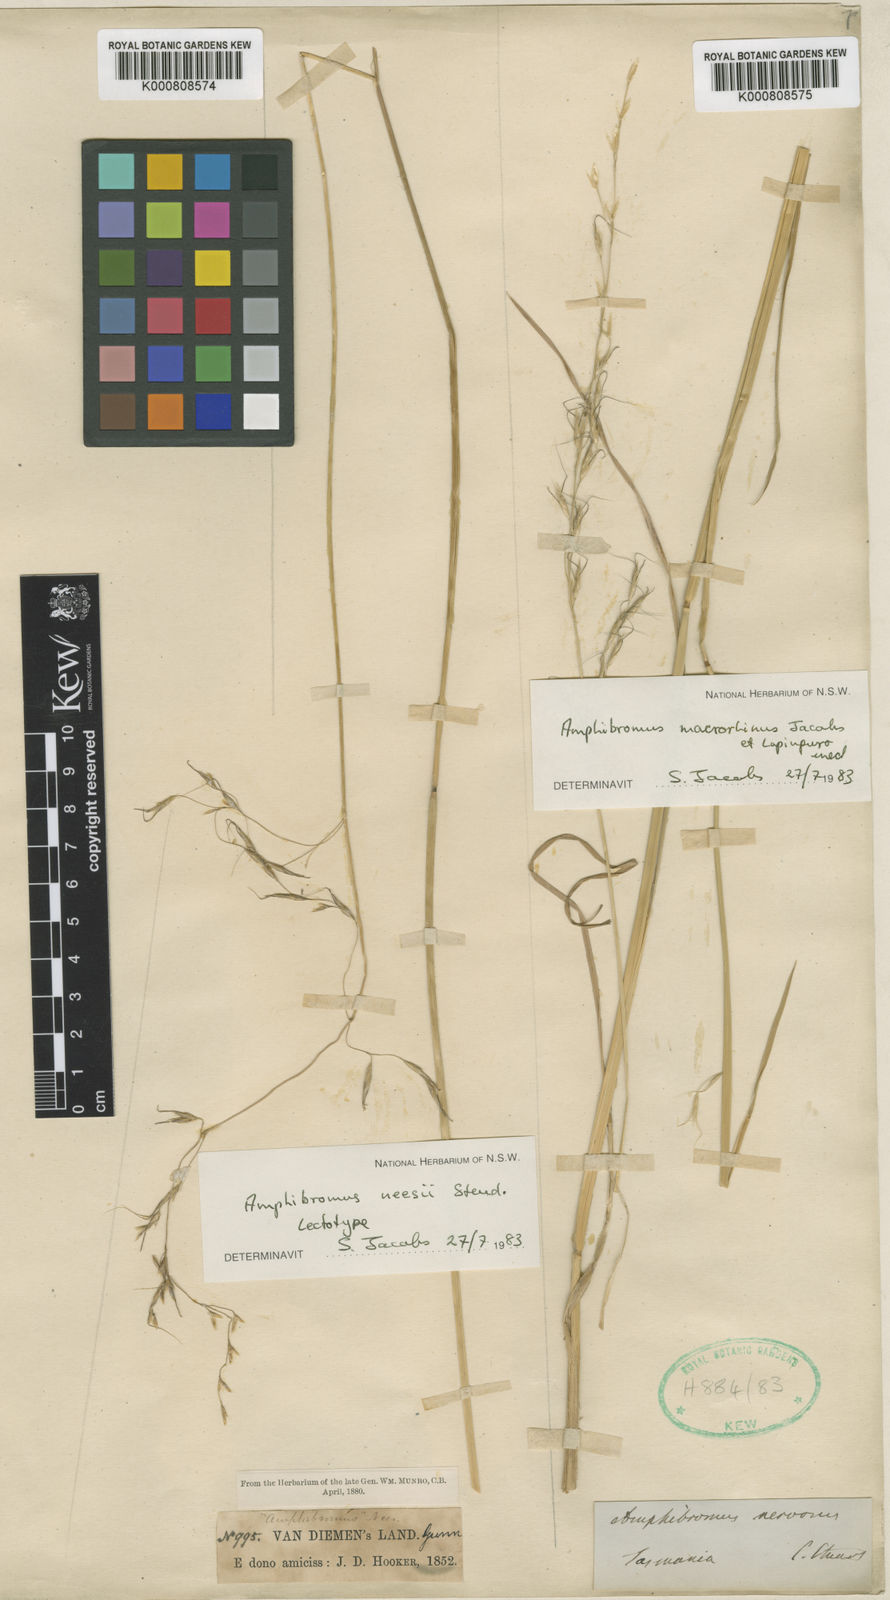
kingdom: Plantae
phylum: Tracheophyta
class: Liliopsida
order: Poales
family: Poaceae
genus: Amphibromus
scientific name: Amphibromus neesii
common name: Australian wallaby grass
